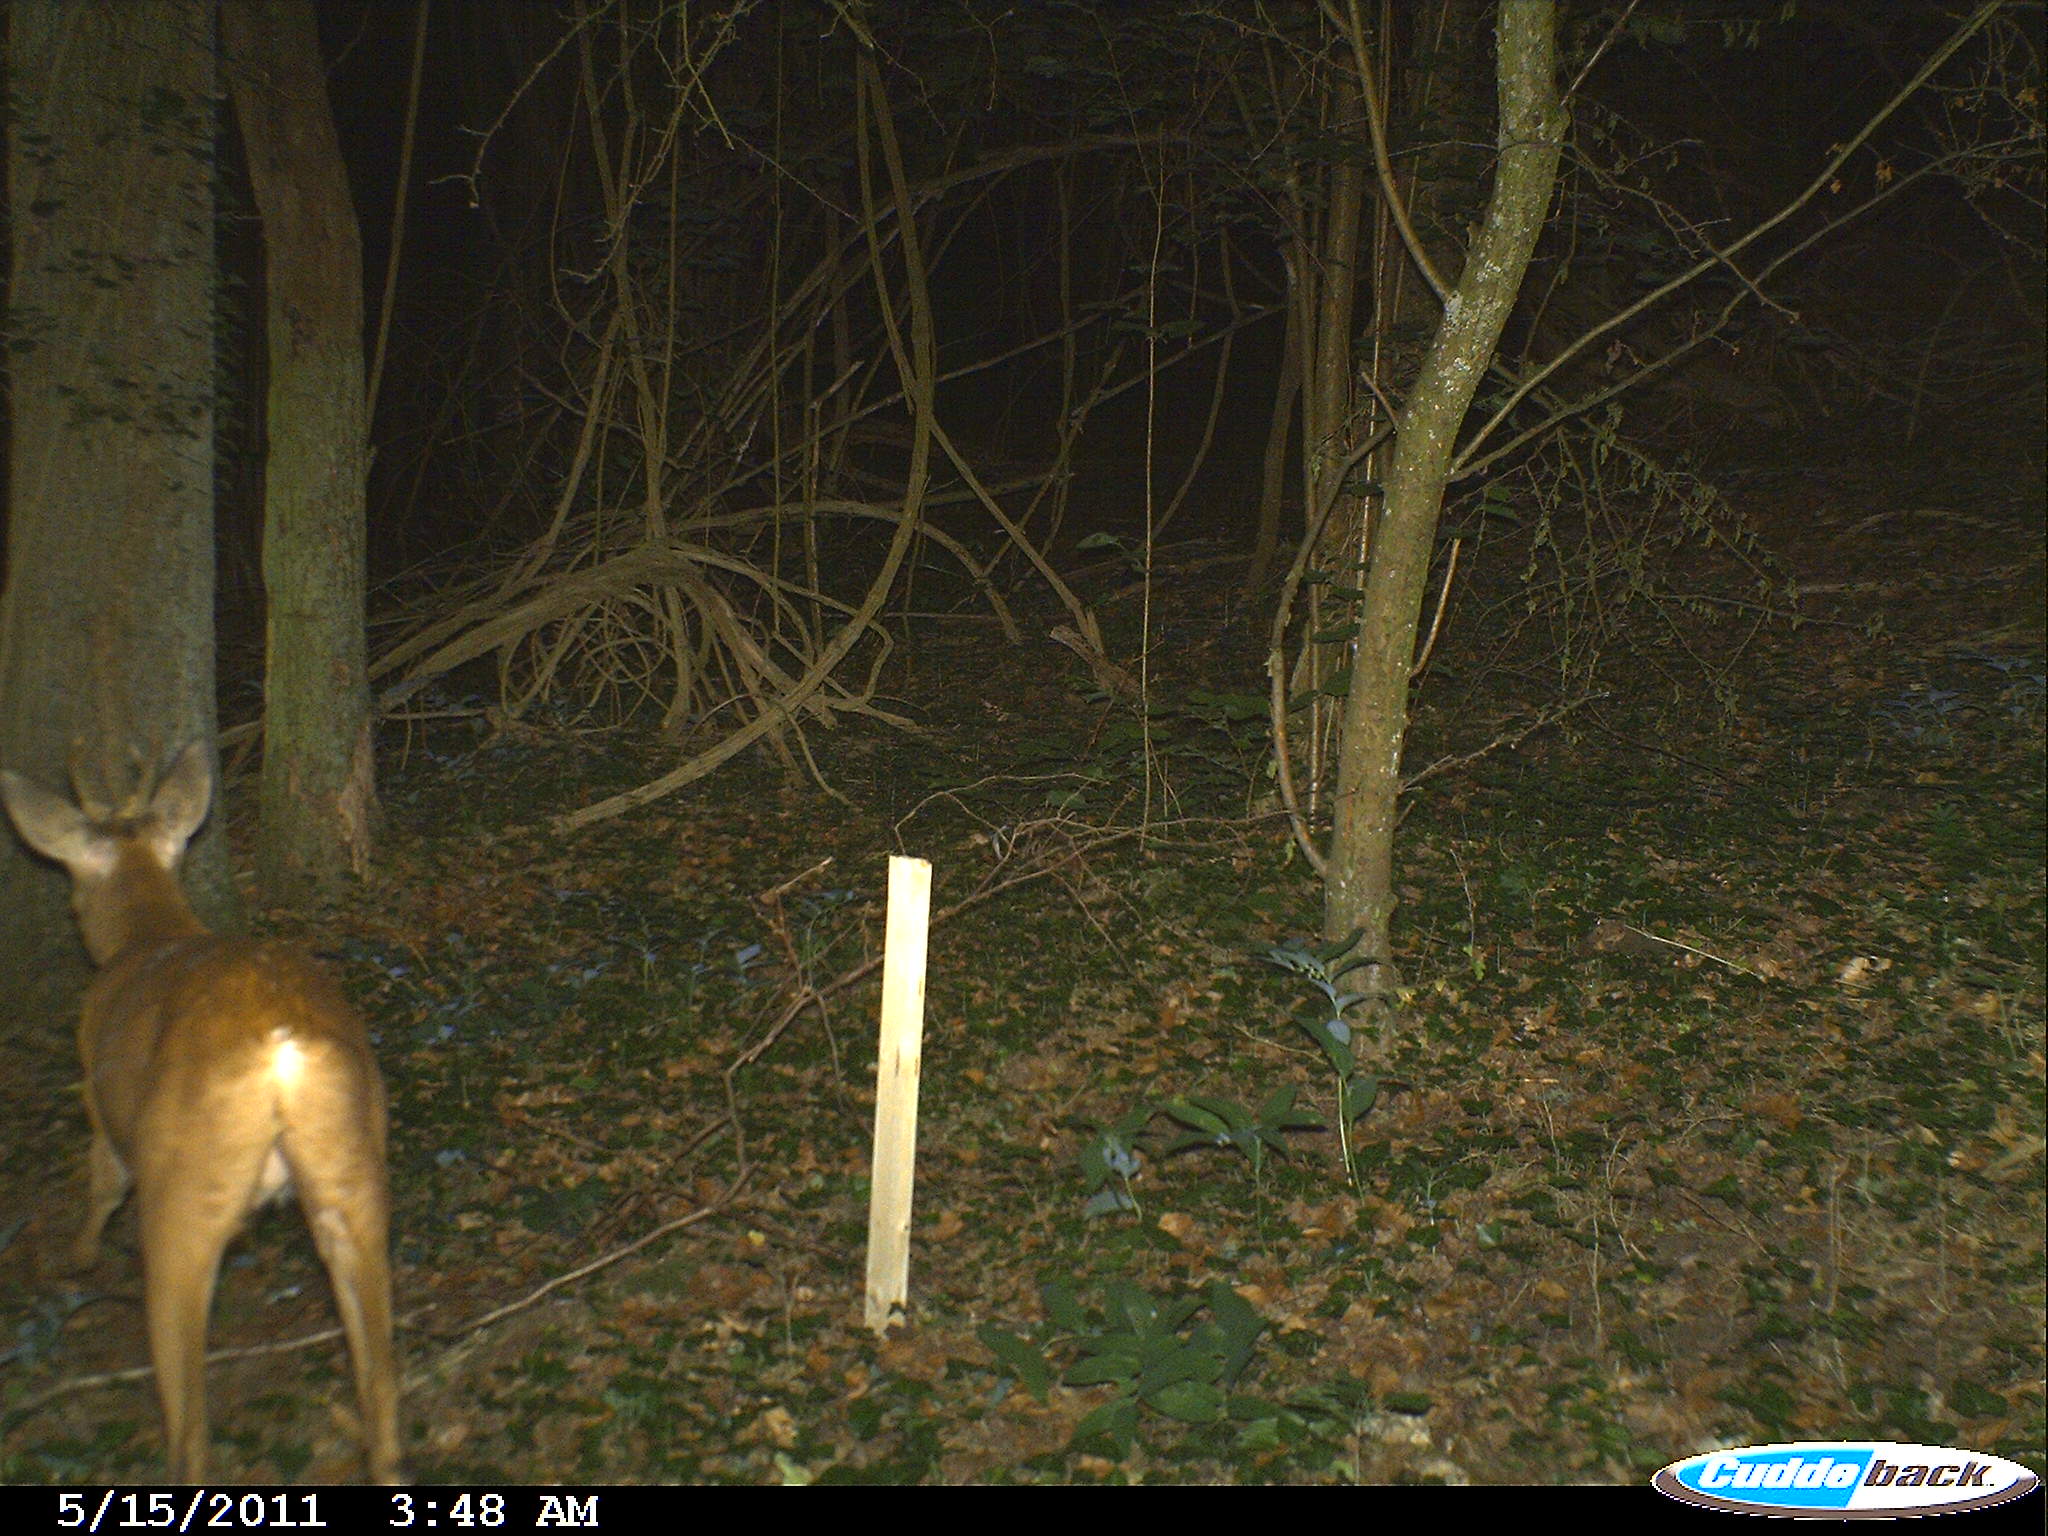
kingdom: Animalia
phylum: Chordata
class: Mammalia
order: Artiodactyla
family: Cervidae
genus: Capreolus
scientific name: Capreolus capreolus
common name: Western roe deer
